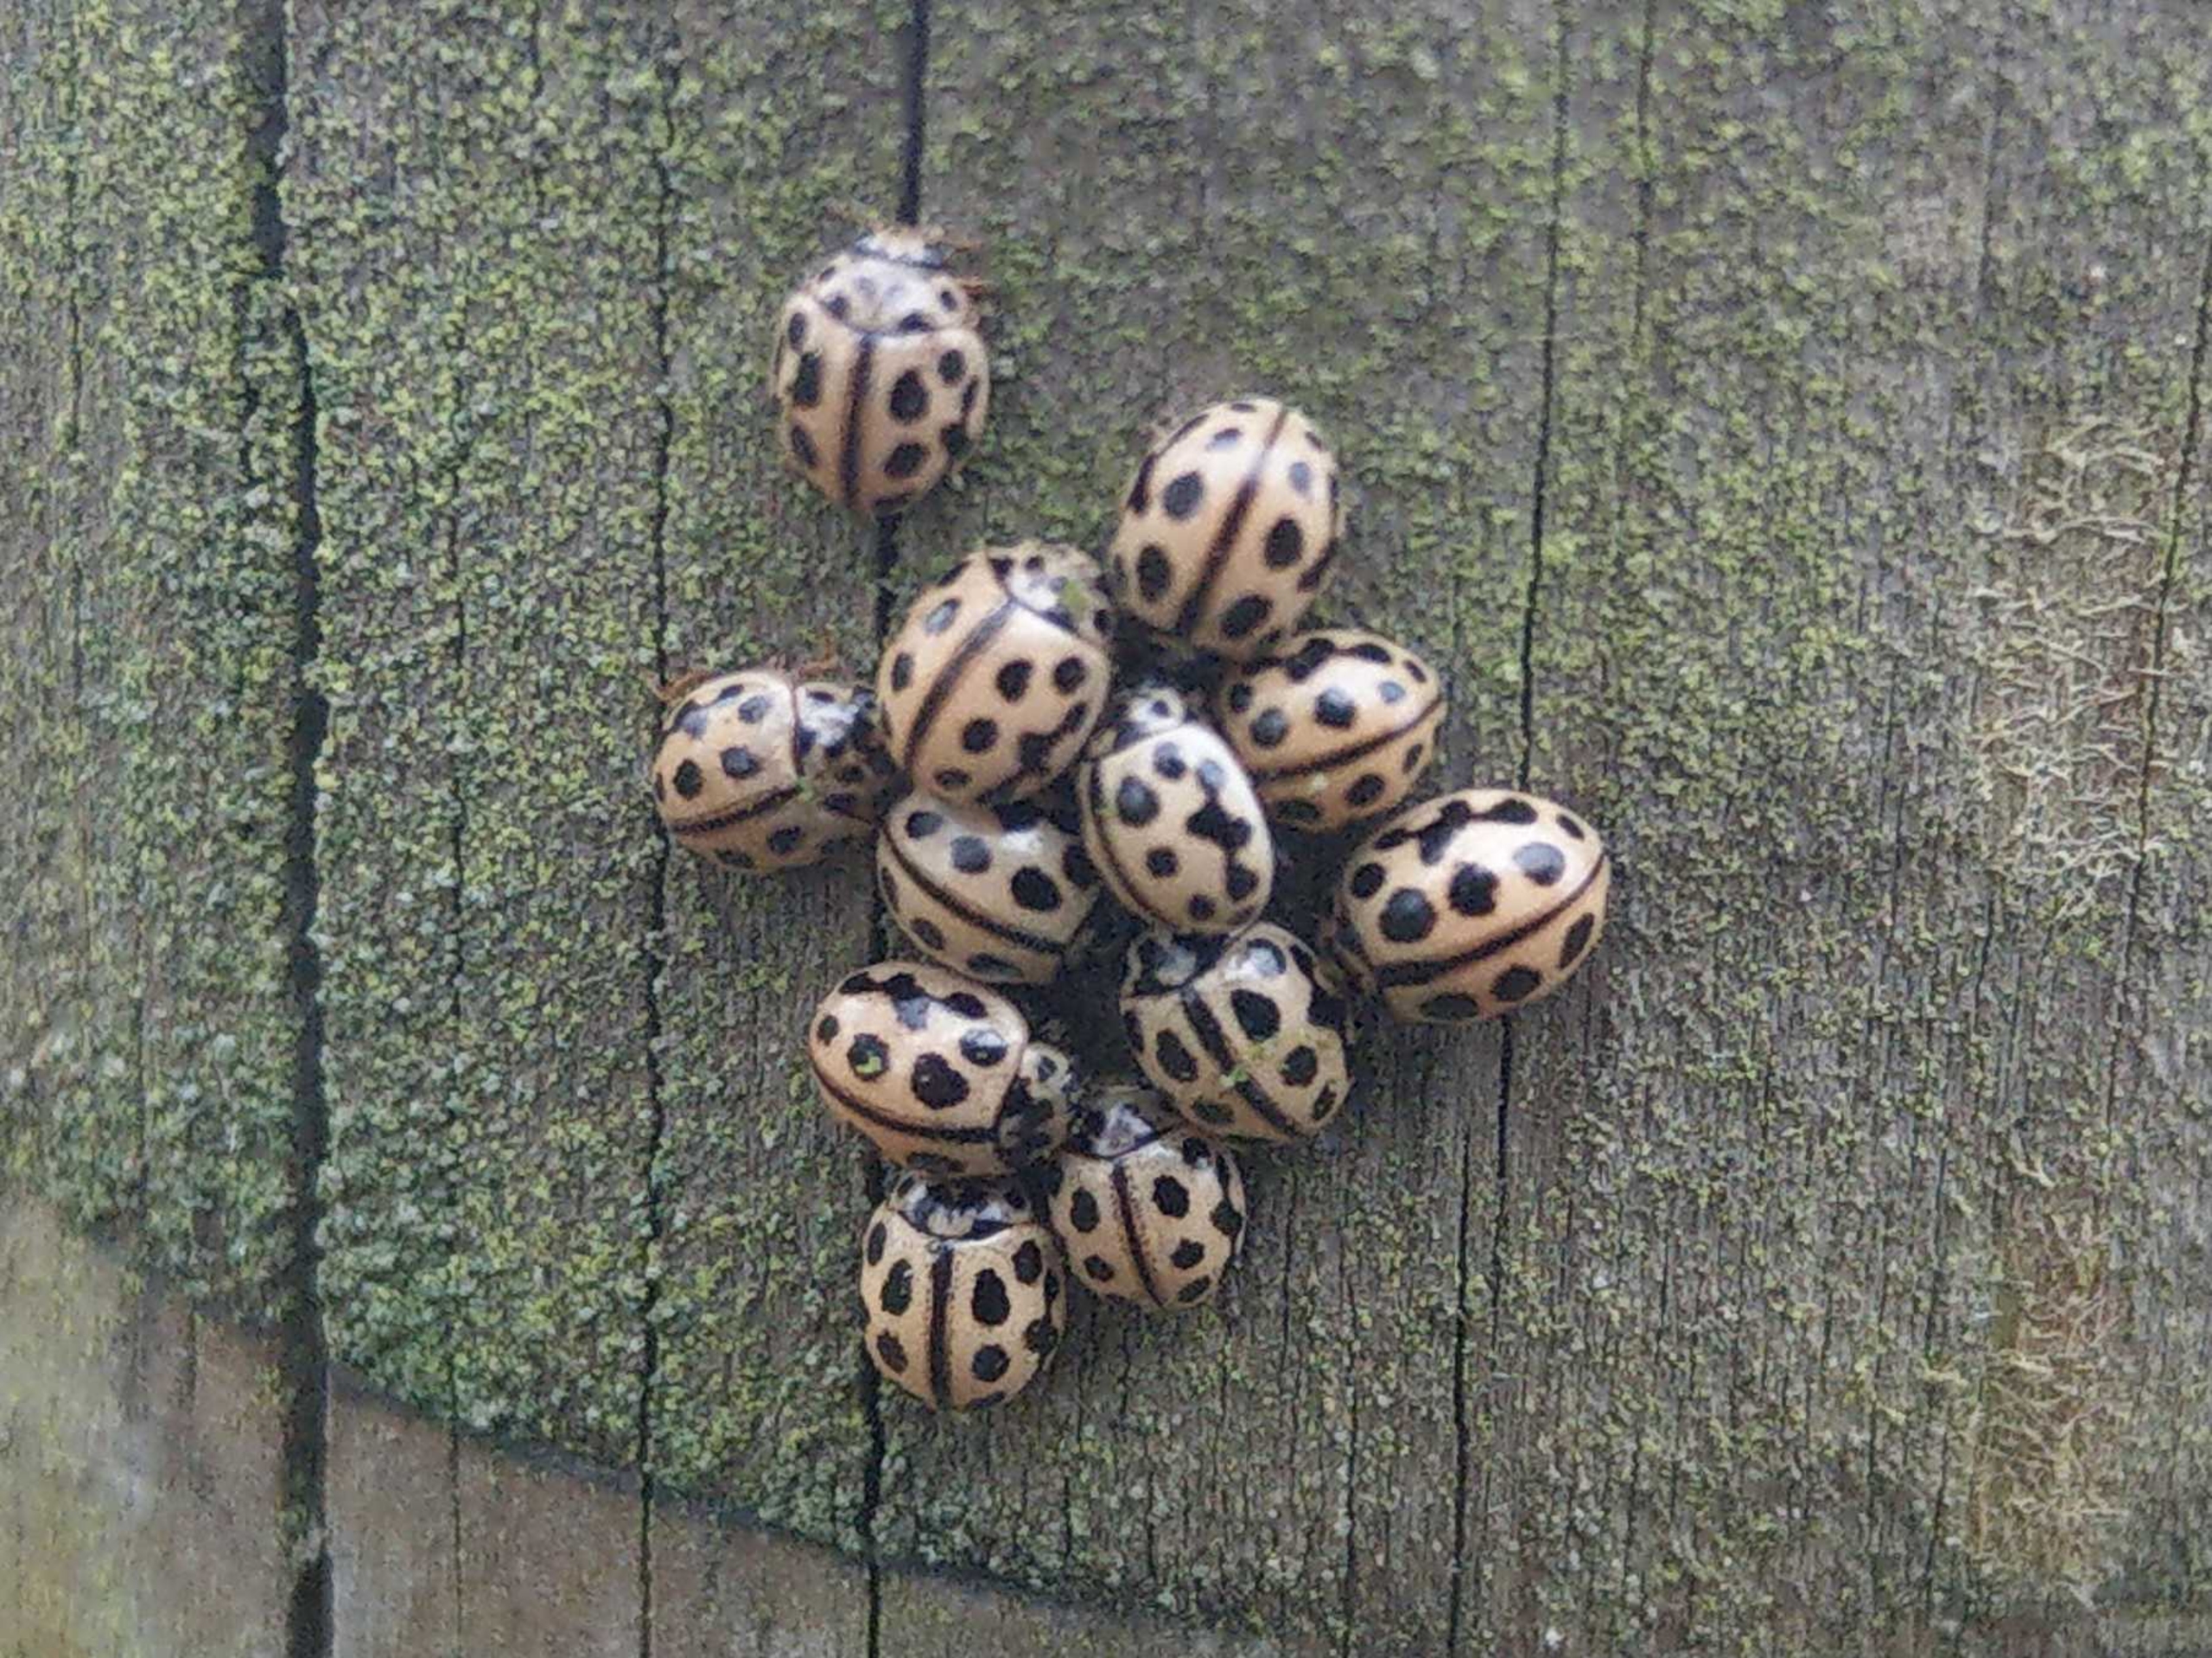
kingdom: Animalia
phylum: Arthropoda
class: Insecta
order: Coleoptera
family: Coccinellidae
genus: Tytthaspis
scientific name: Tytthaspis sedecimpunctata
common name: Sekstenprikket mariehøne
